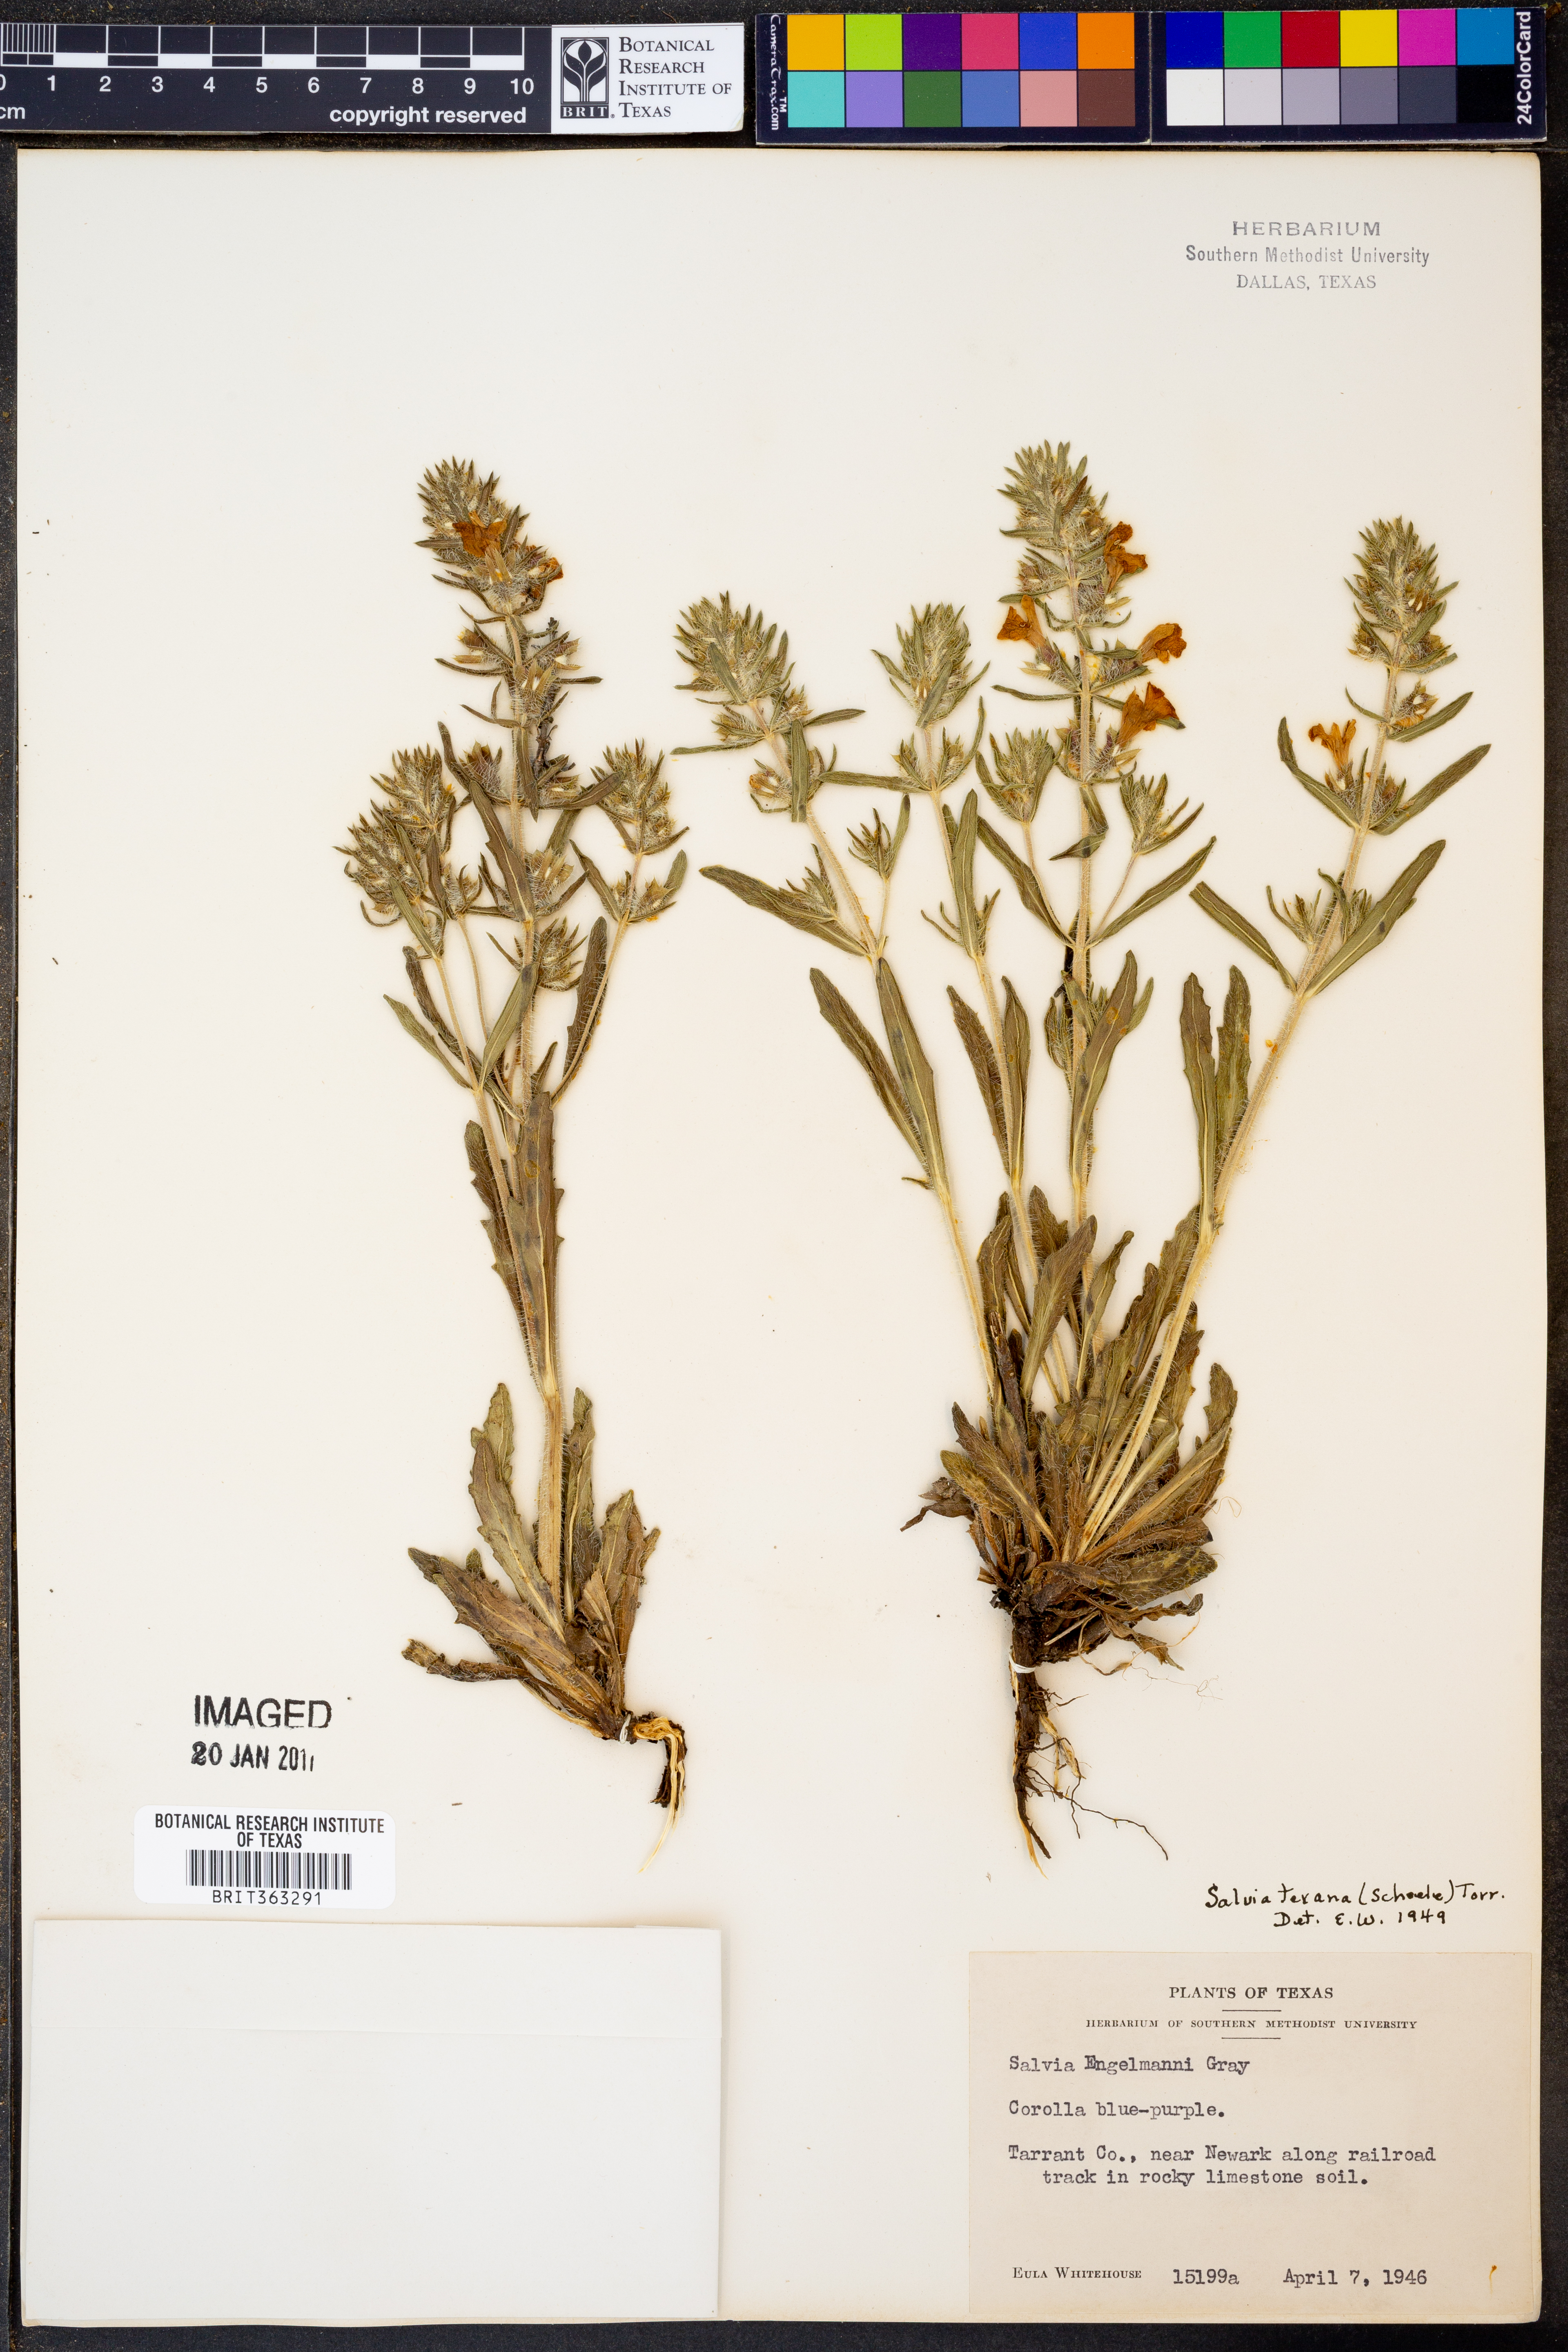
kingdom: Plantae
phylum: Tracheophyta
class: Magnoliopsida
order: Lamiales
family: Lamiaceae
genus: Salvia
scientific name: Salvia texana
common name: Texas sage
